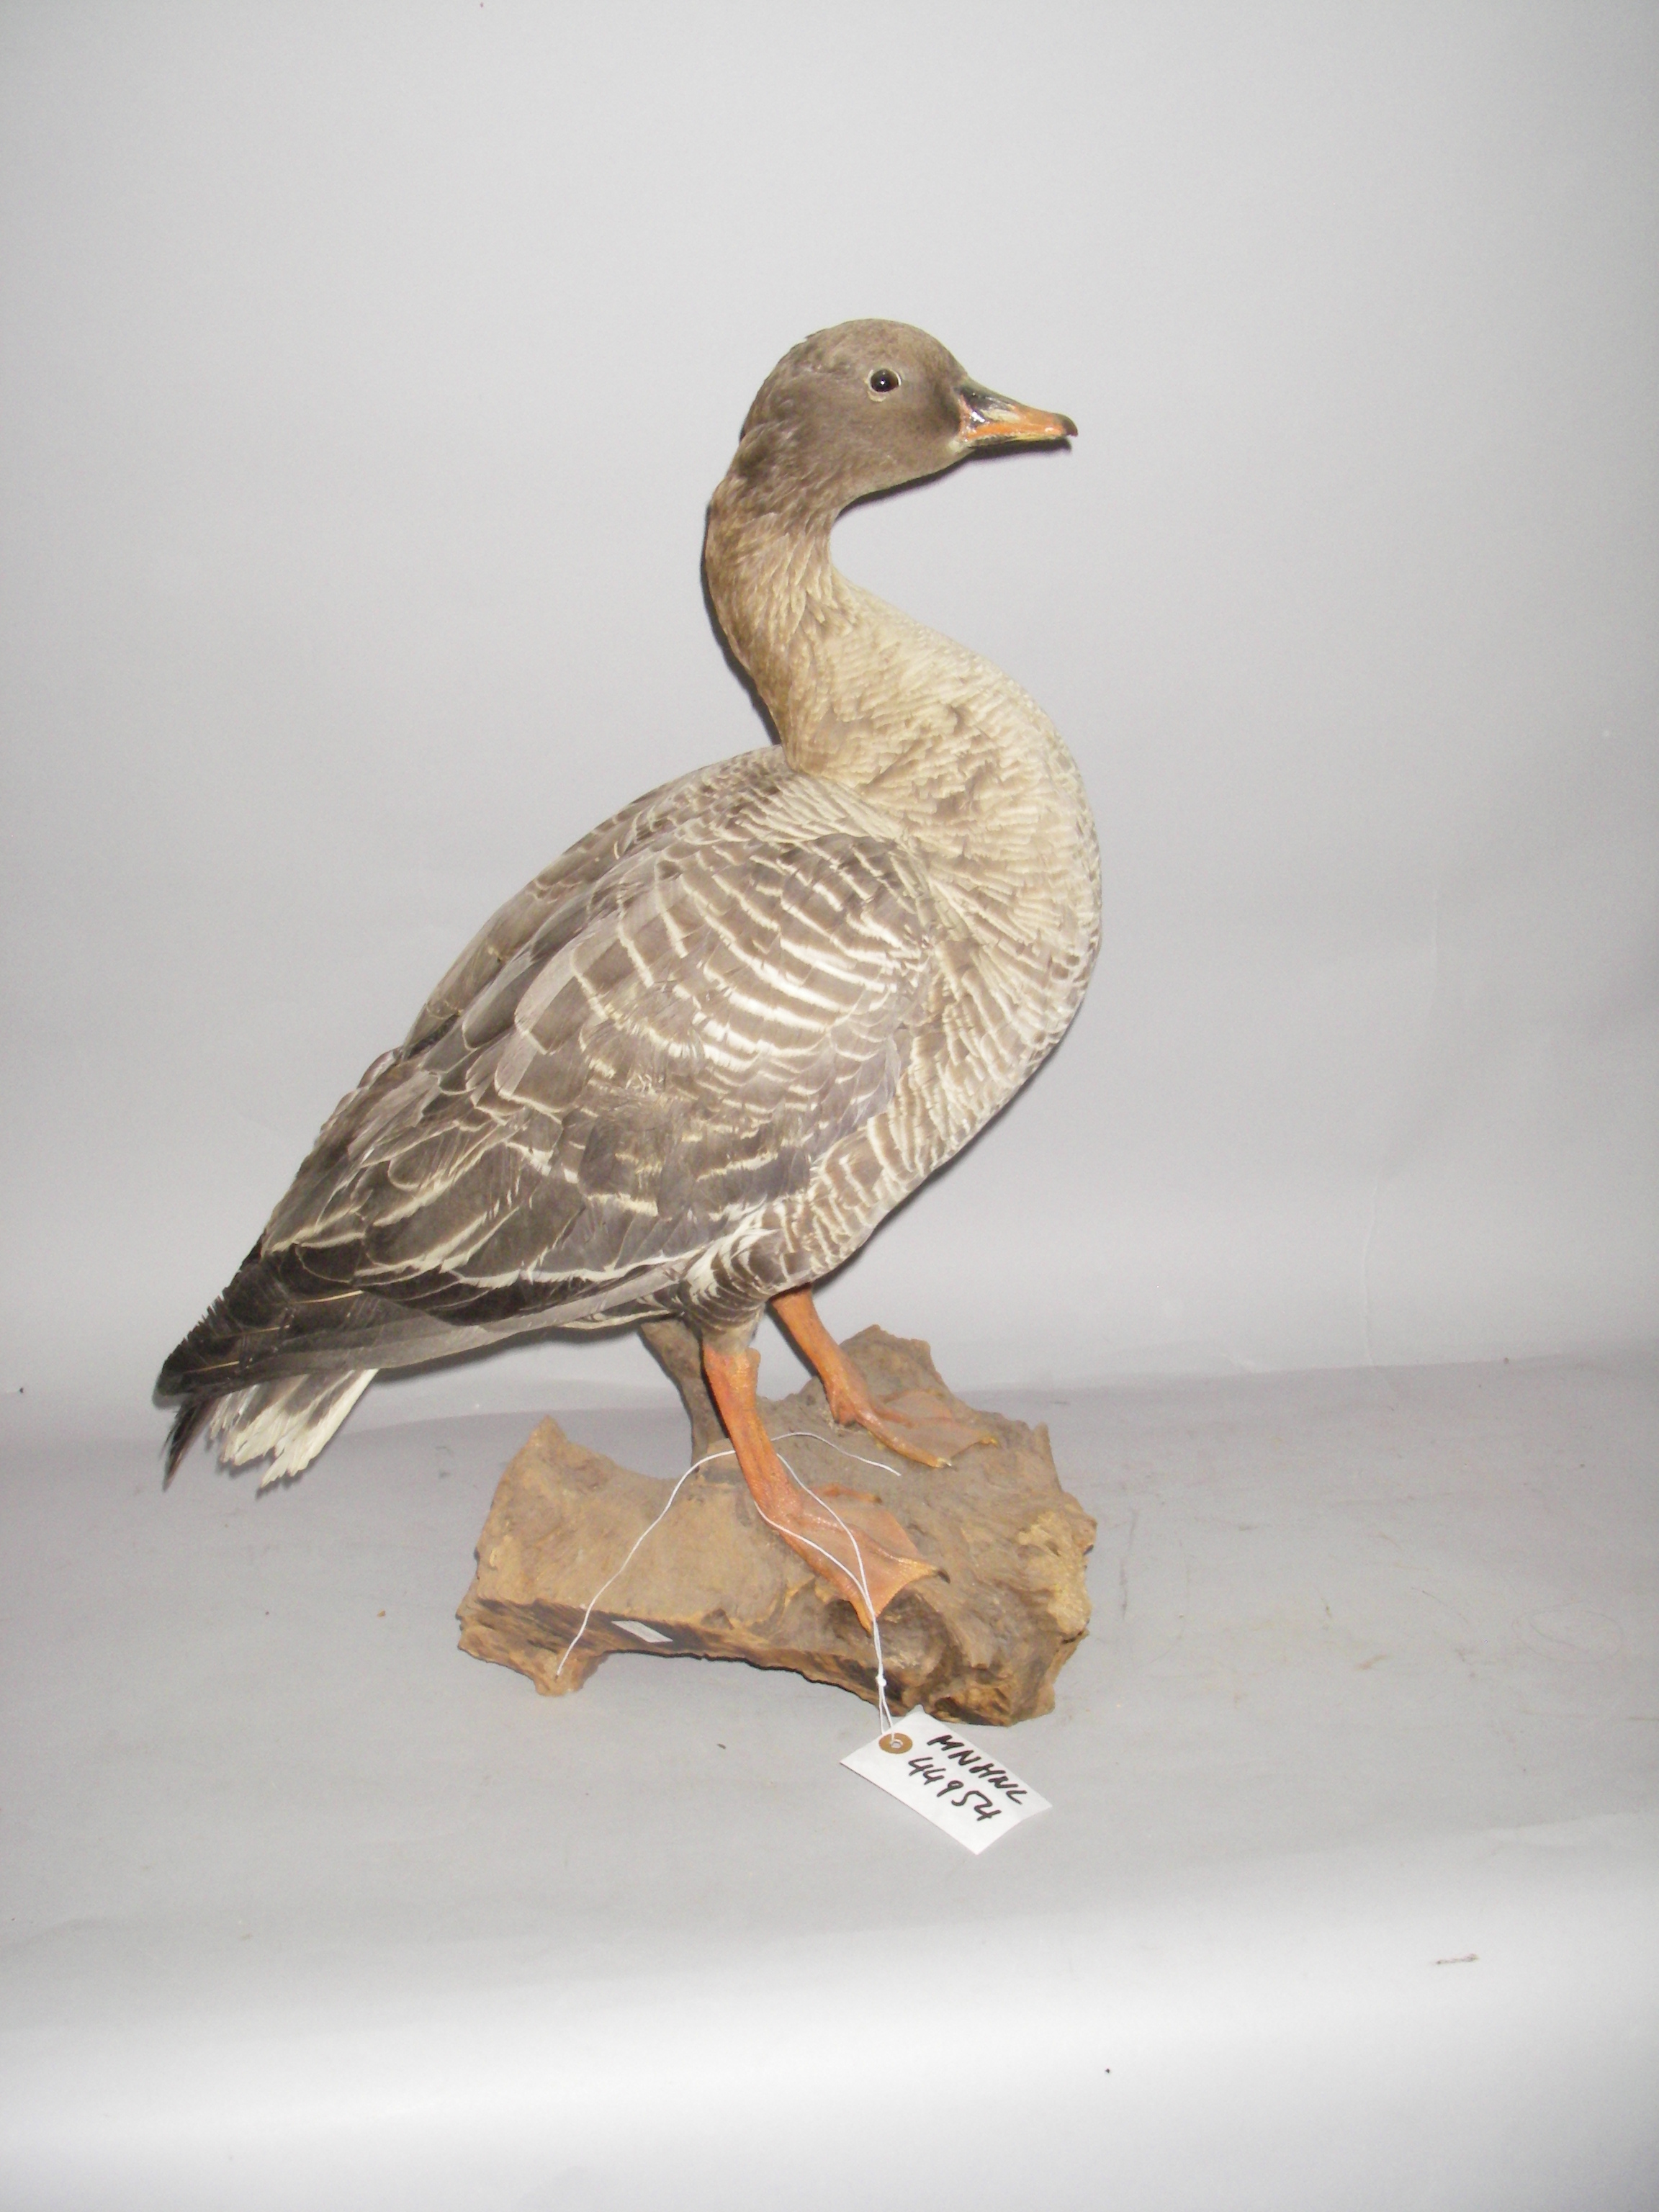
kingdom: Animalia
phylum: Chordata
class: Aves
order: Anseriformes
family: Anatidae
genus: Anser
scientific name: Anser brachyrhynchus
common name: Pink-footed goose
